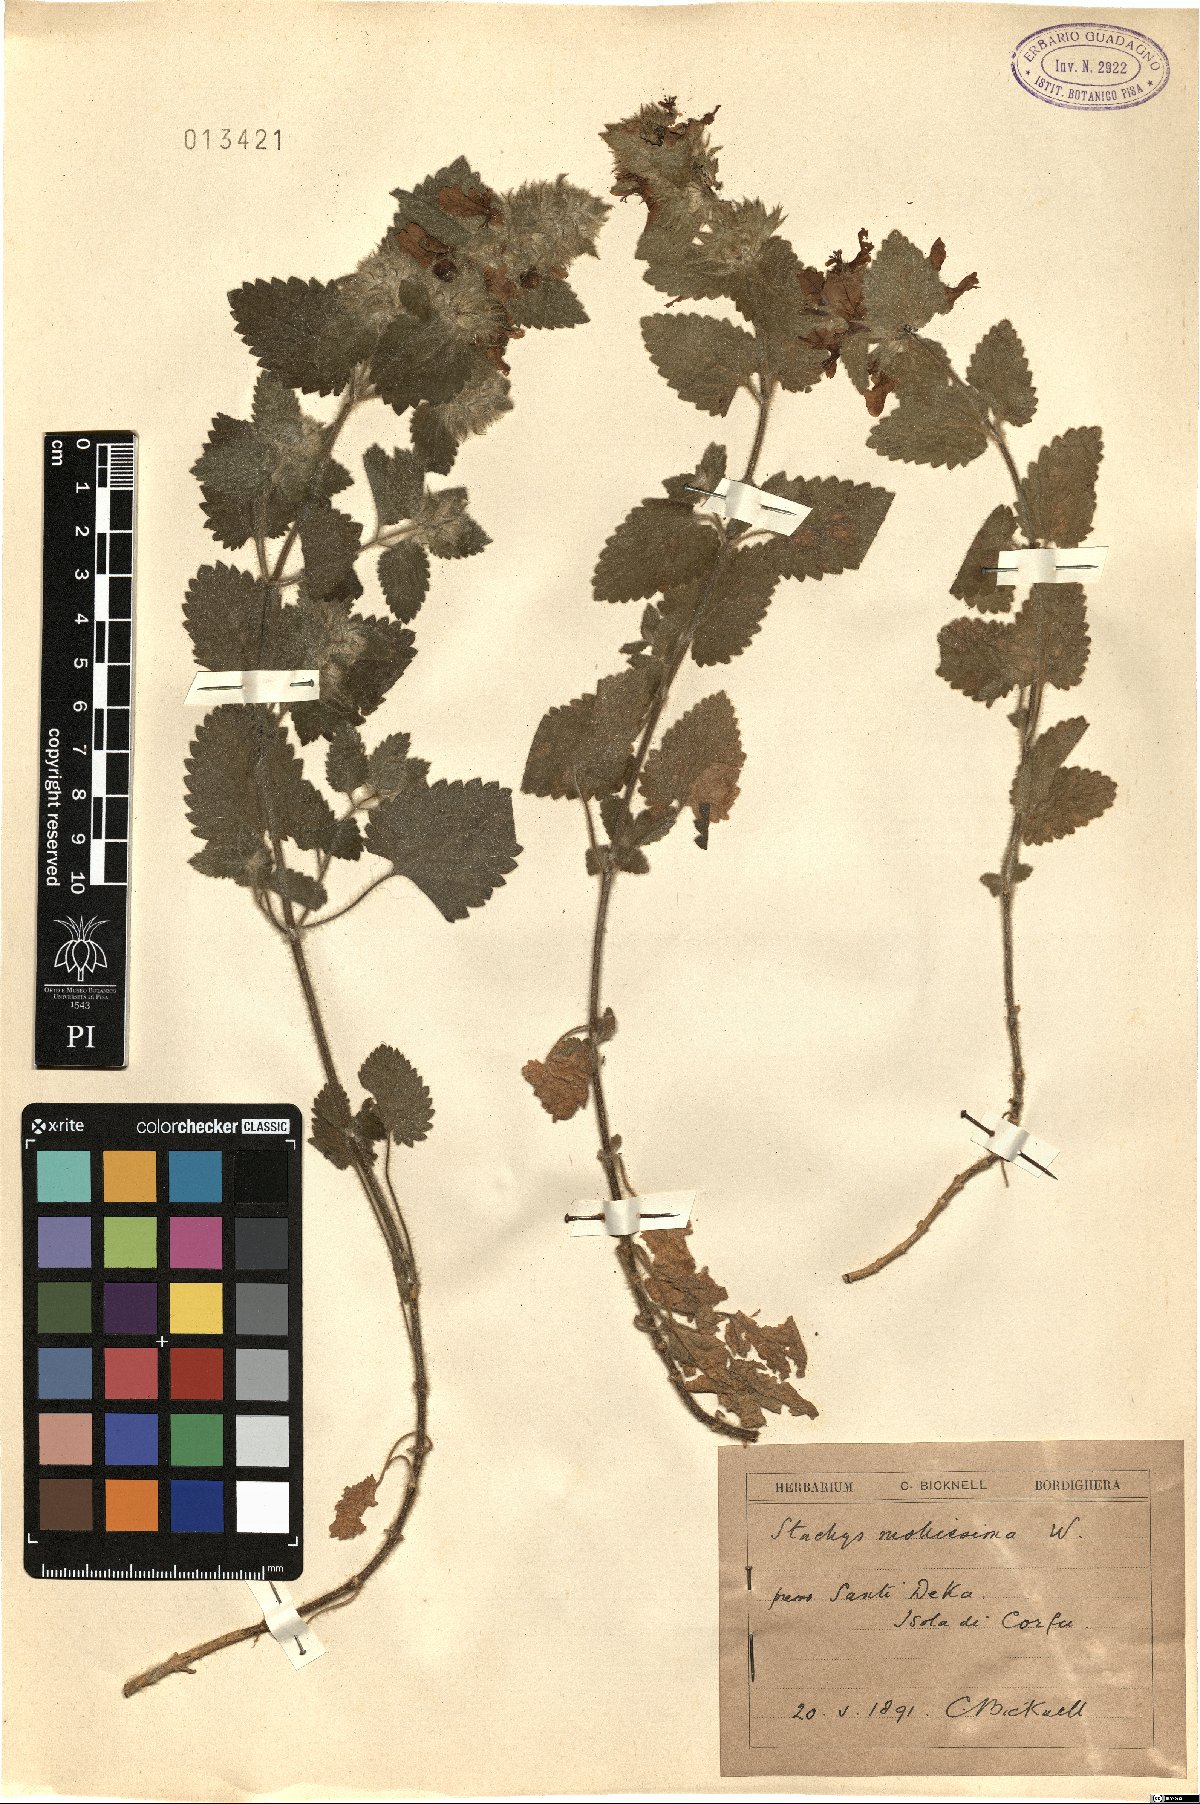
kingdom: Plantae
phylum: Tracheophyta
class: Magnoliopsida
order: Lamiales
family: Lamiaceae
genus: Stachys
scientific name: Stachys mollissima
